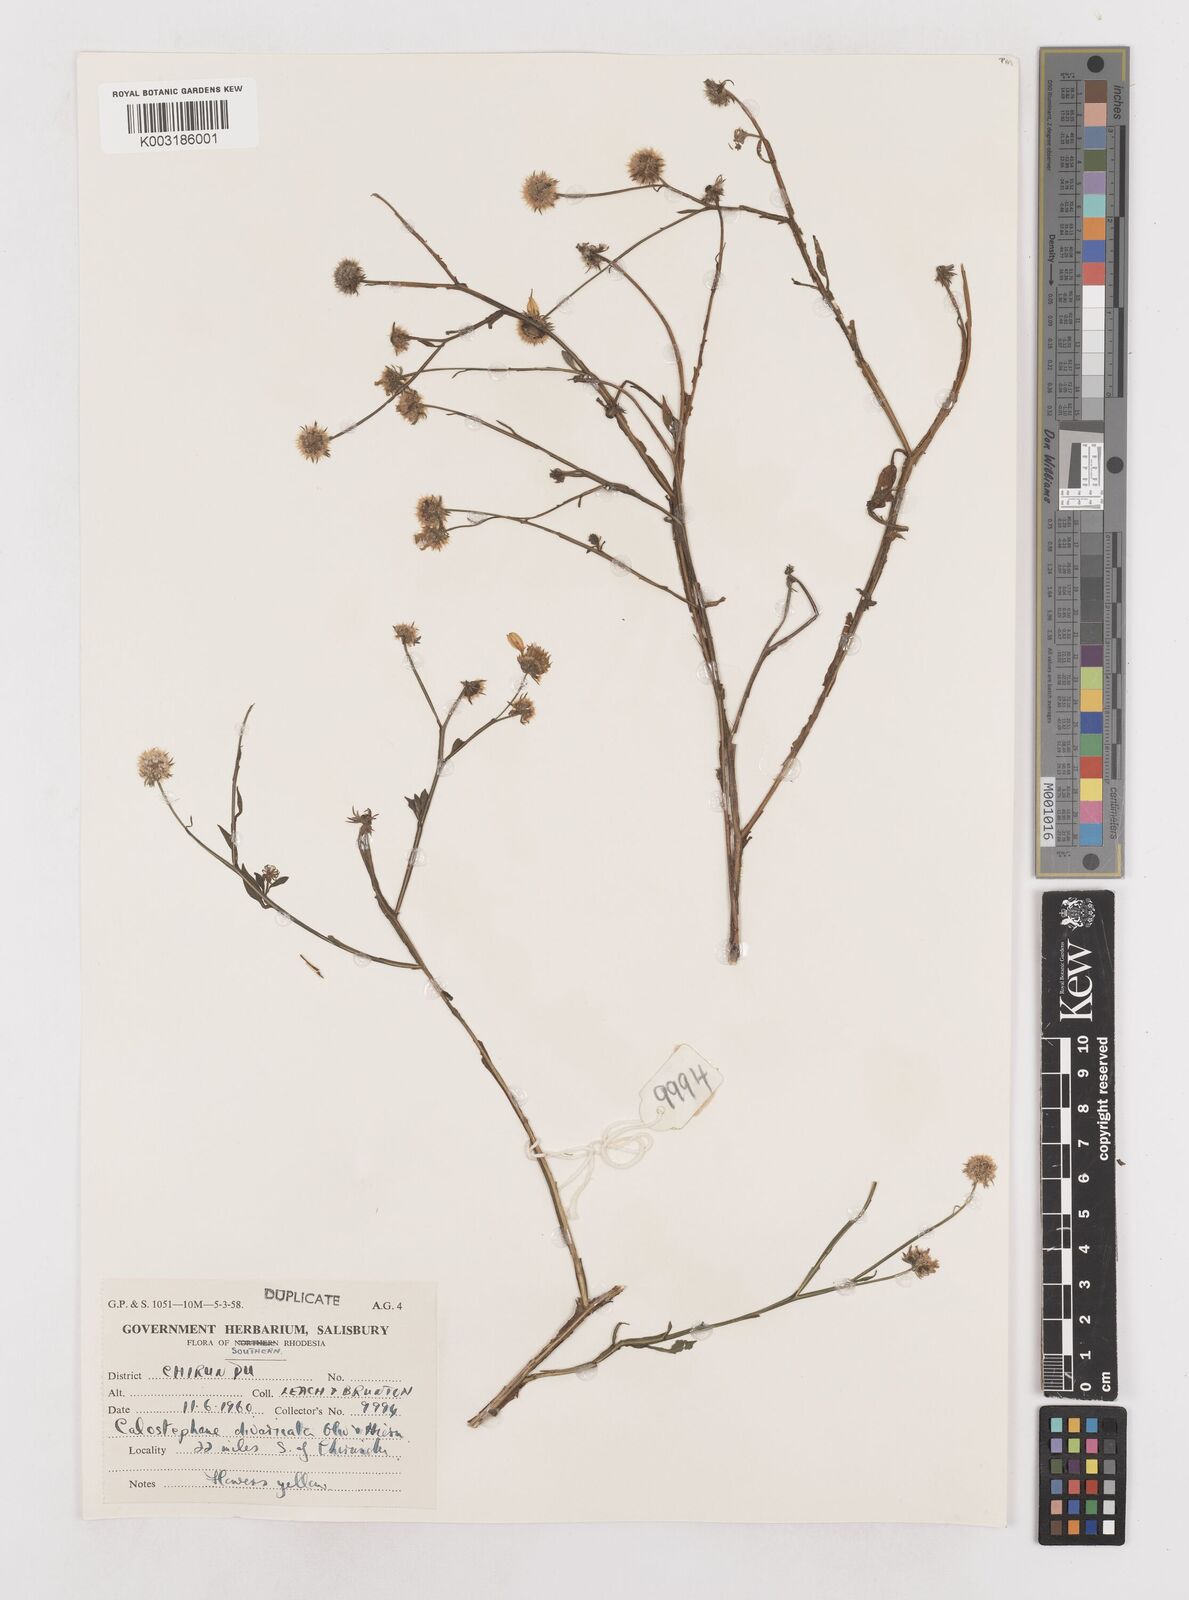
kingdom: Plantae
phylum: Tracheophyta
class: Magnoliopsida
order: Asterales
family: Asteraceae
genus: Calostephane
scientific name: Calostephane divaricata
